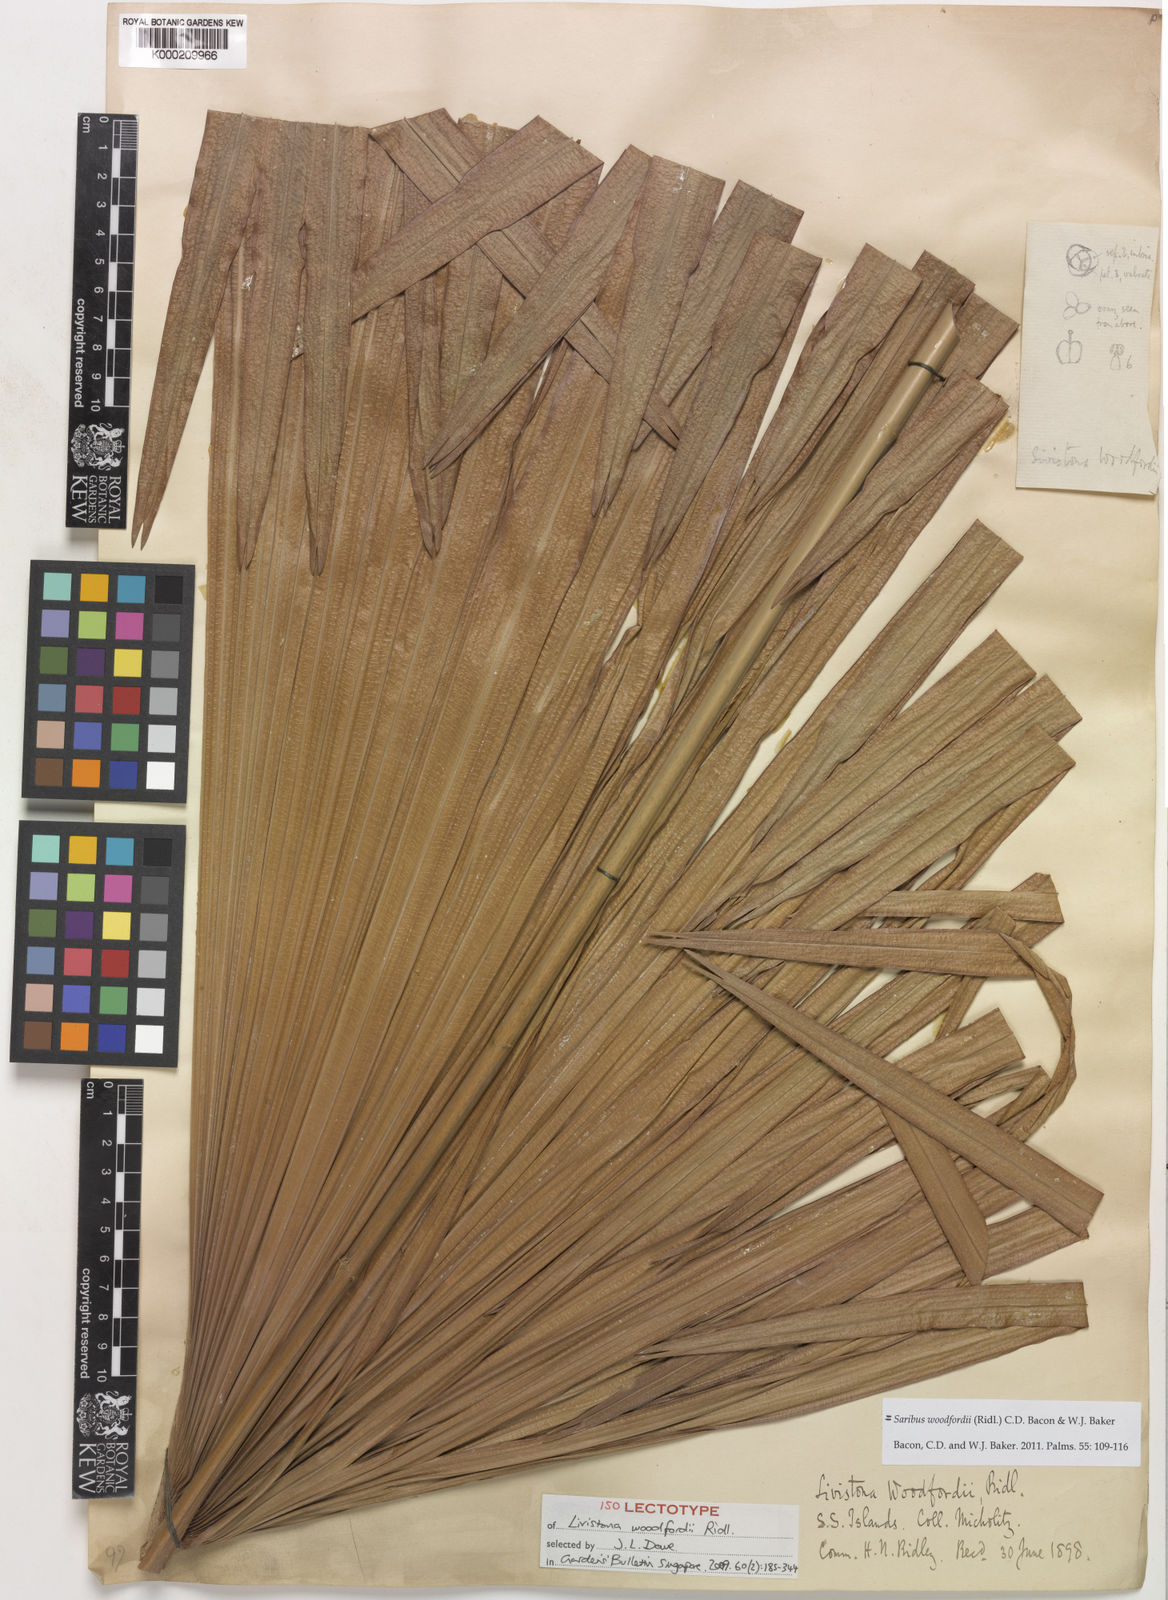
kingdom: Plantae
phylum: Tracheophyta
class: Liliopsida
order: Arecales
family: Arecaceae
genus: Saribus
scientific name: Saribus woodfordii
